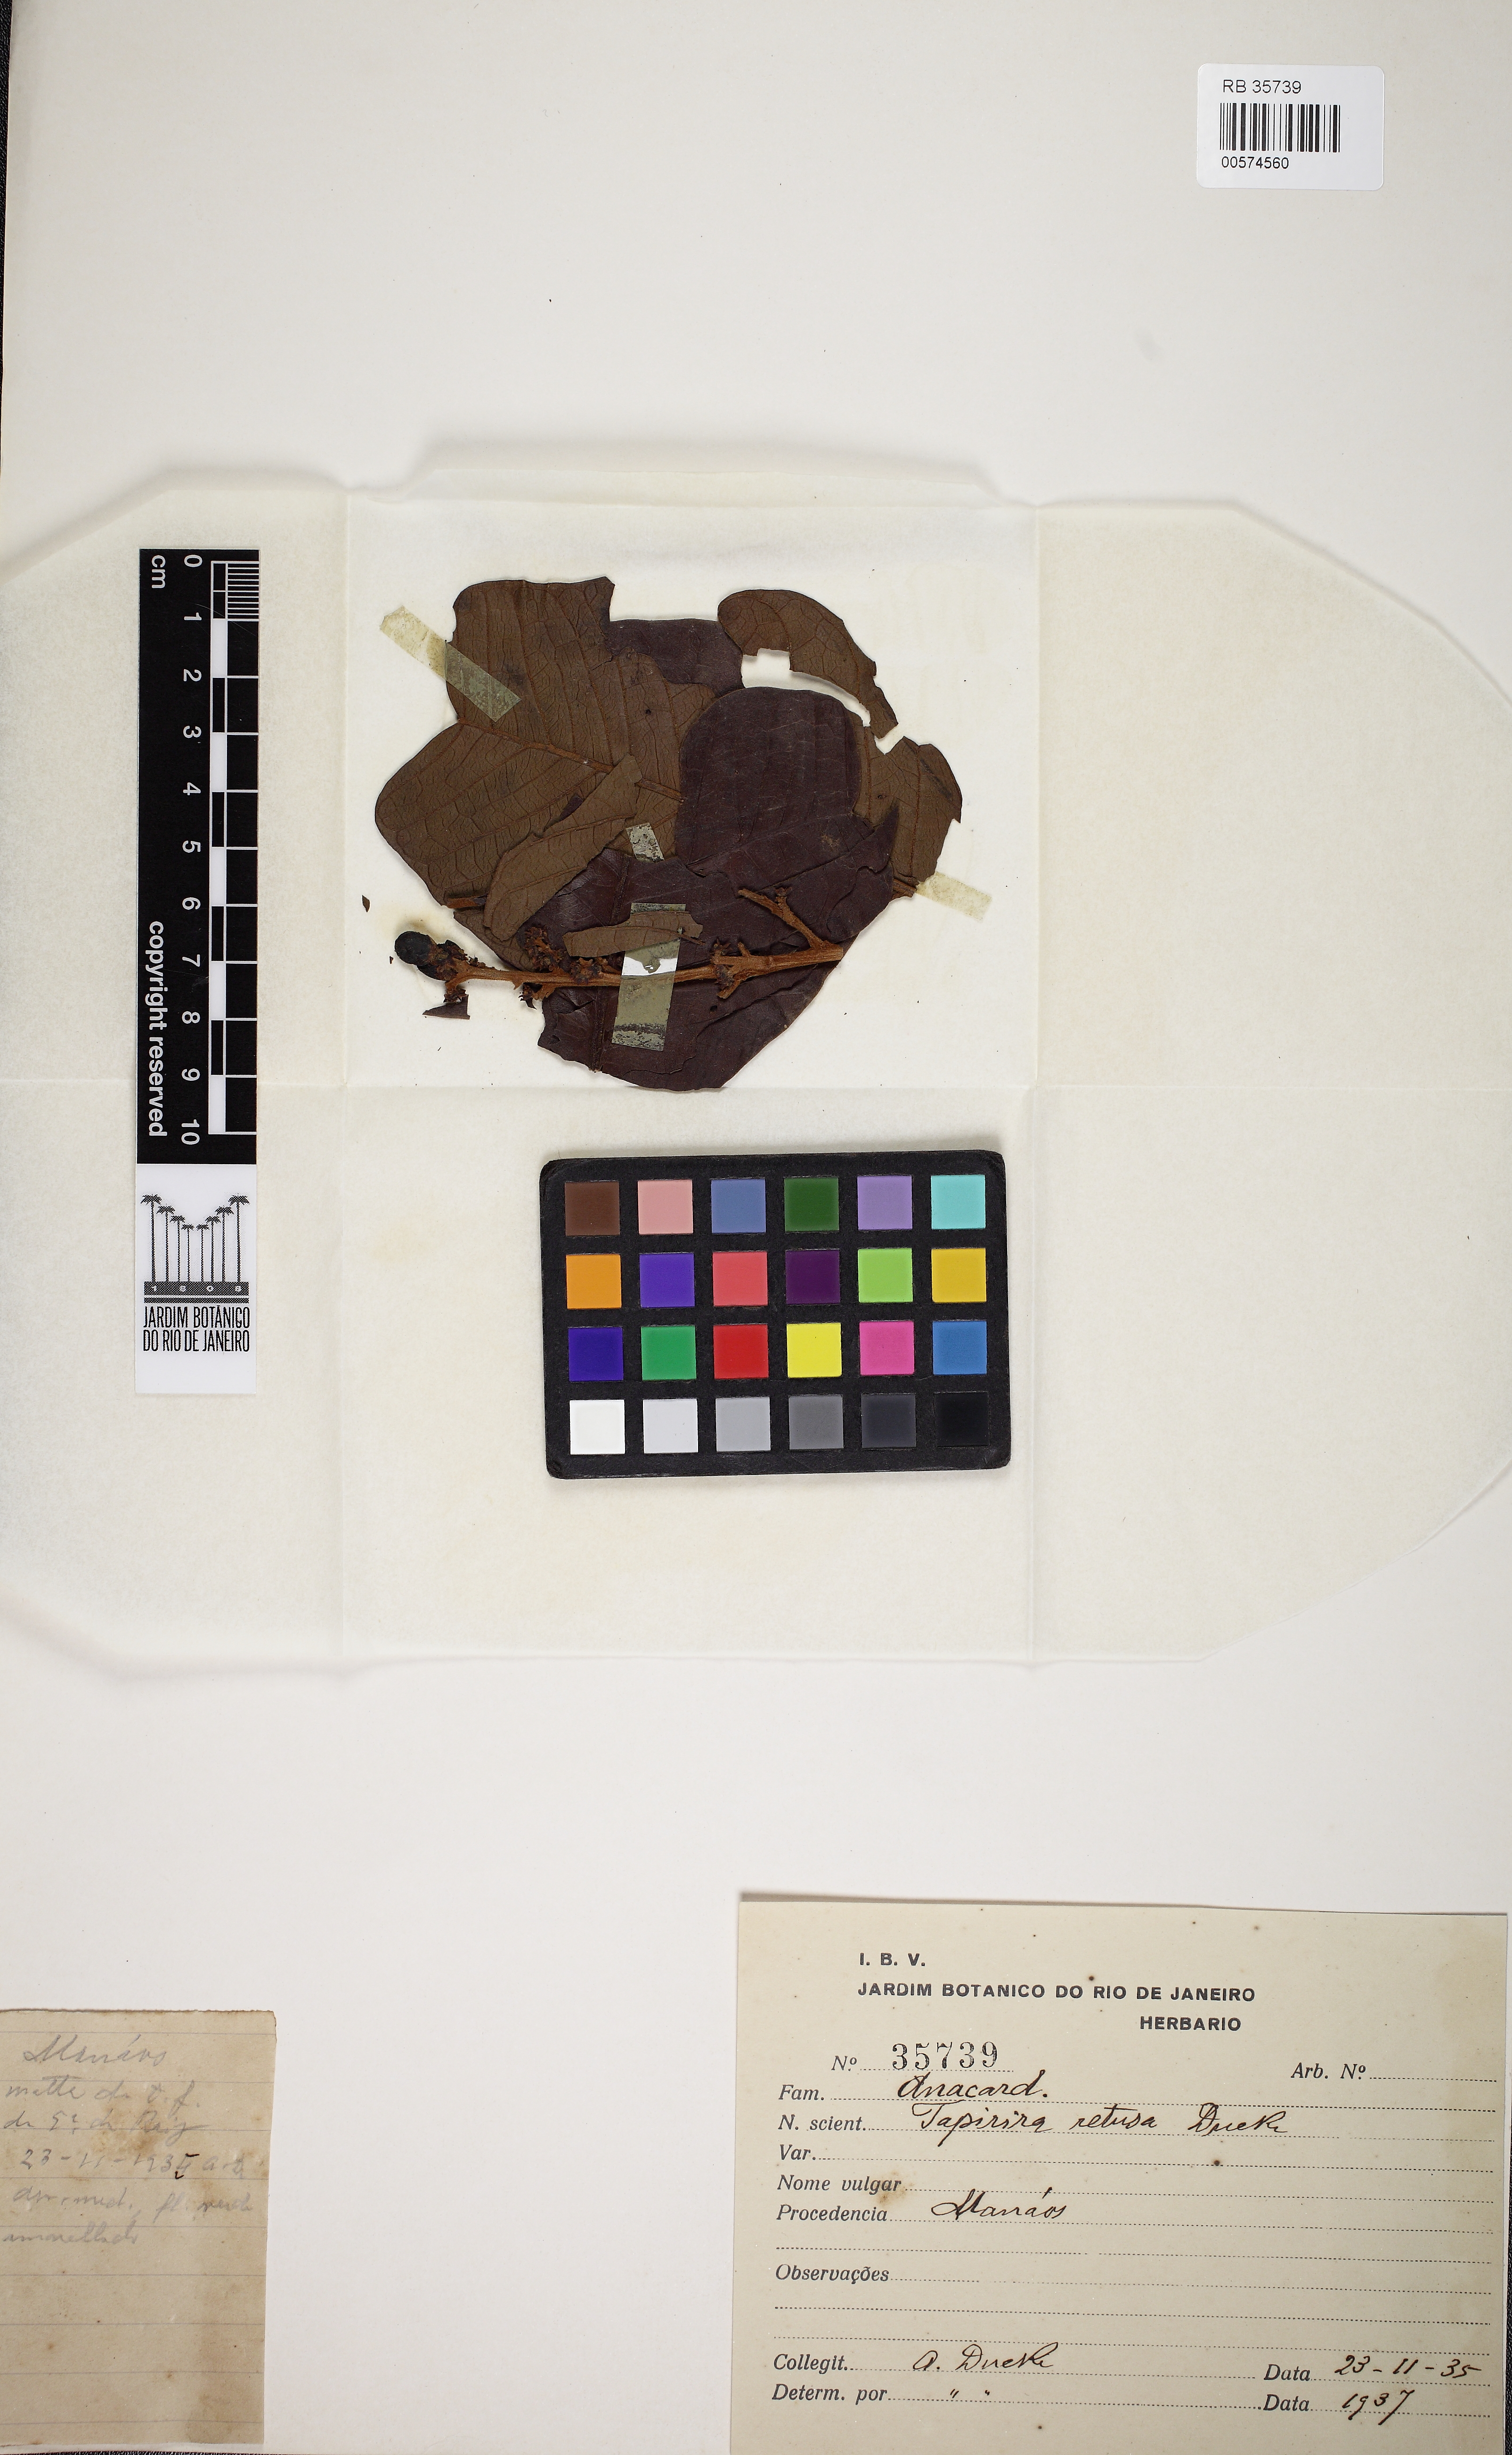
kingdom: Plantae
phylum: Tracheophyta
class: Magnoliopsida
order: Sapindales
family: Anacardiaceae
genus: Tapirira
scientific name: Tapirira retusa
